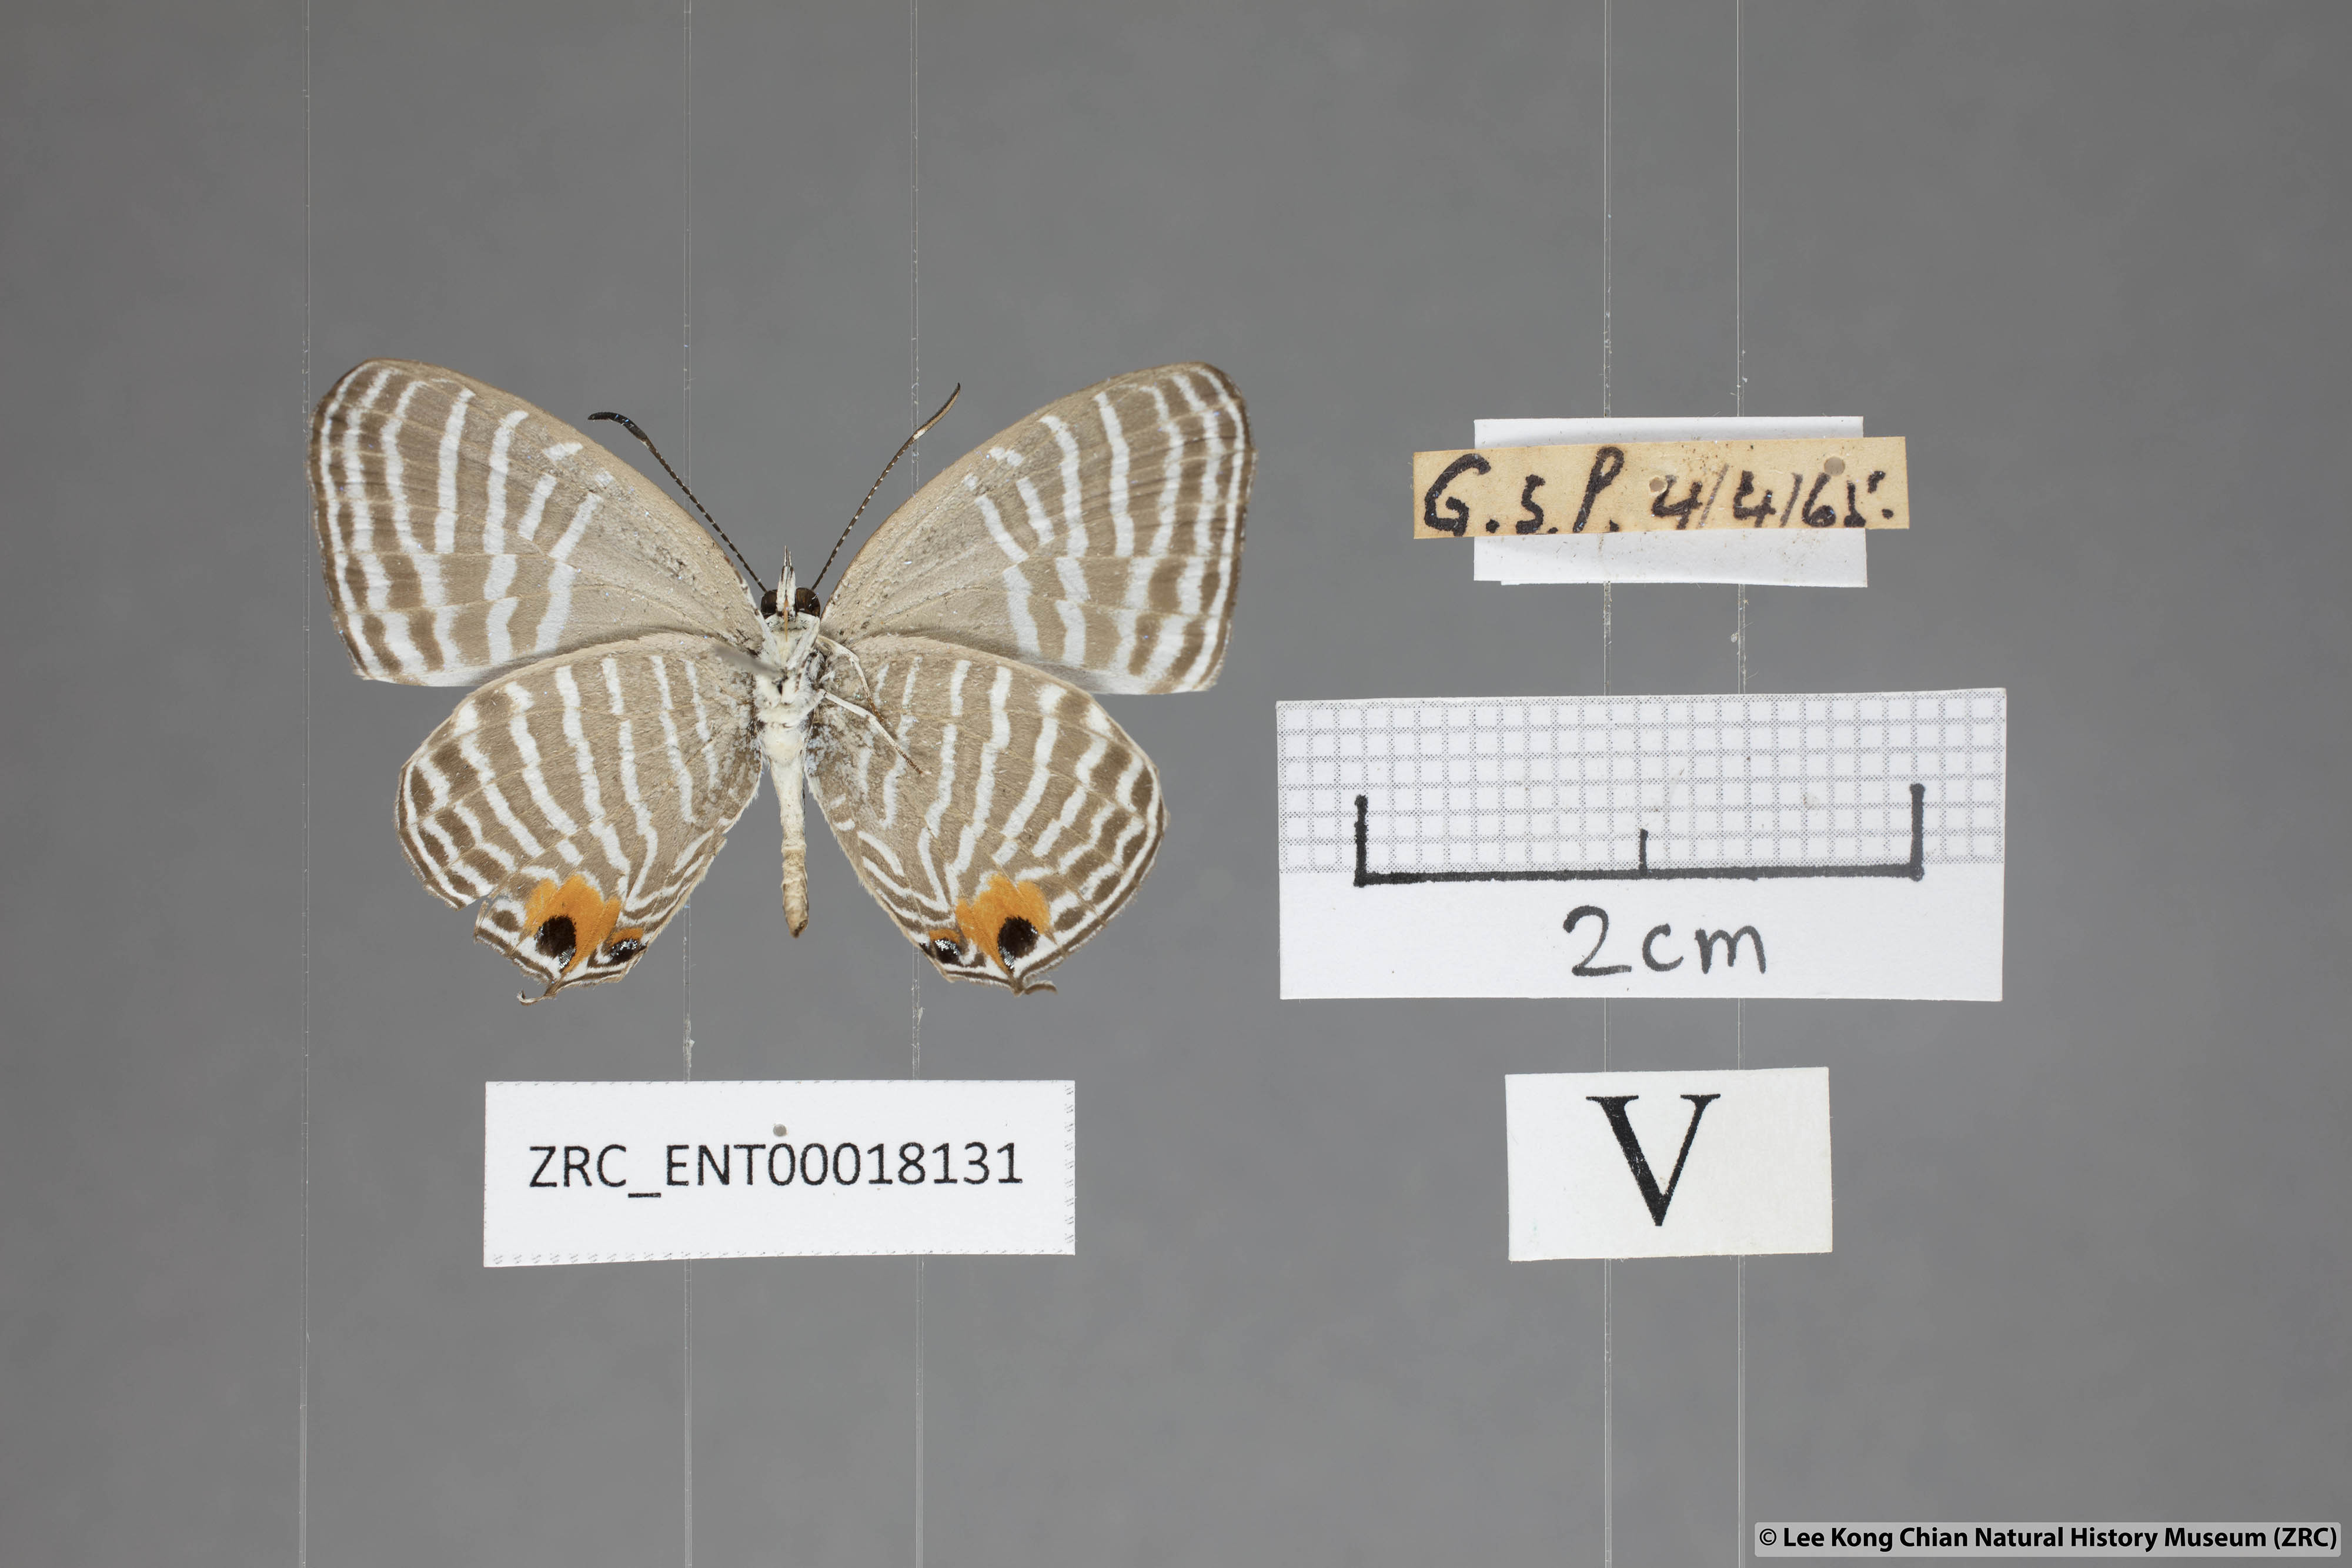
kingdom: Animalia
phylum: Arthropoda
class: Insecta
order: Lepidoptera
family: Lycaenidae
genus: Jamides
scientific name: Jamides malaccanus
